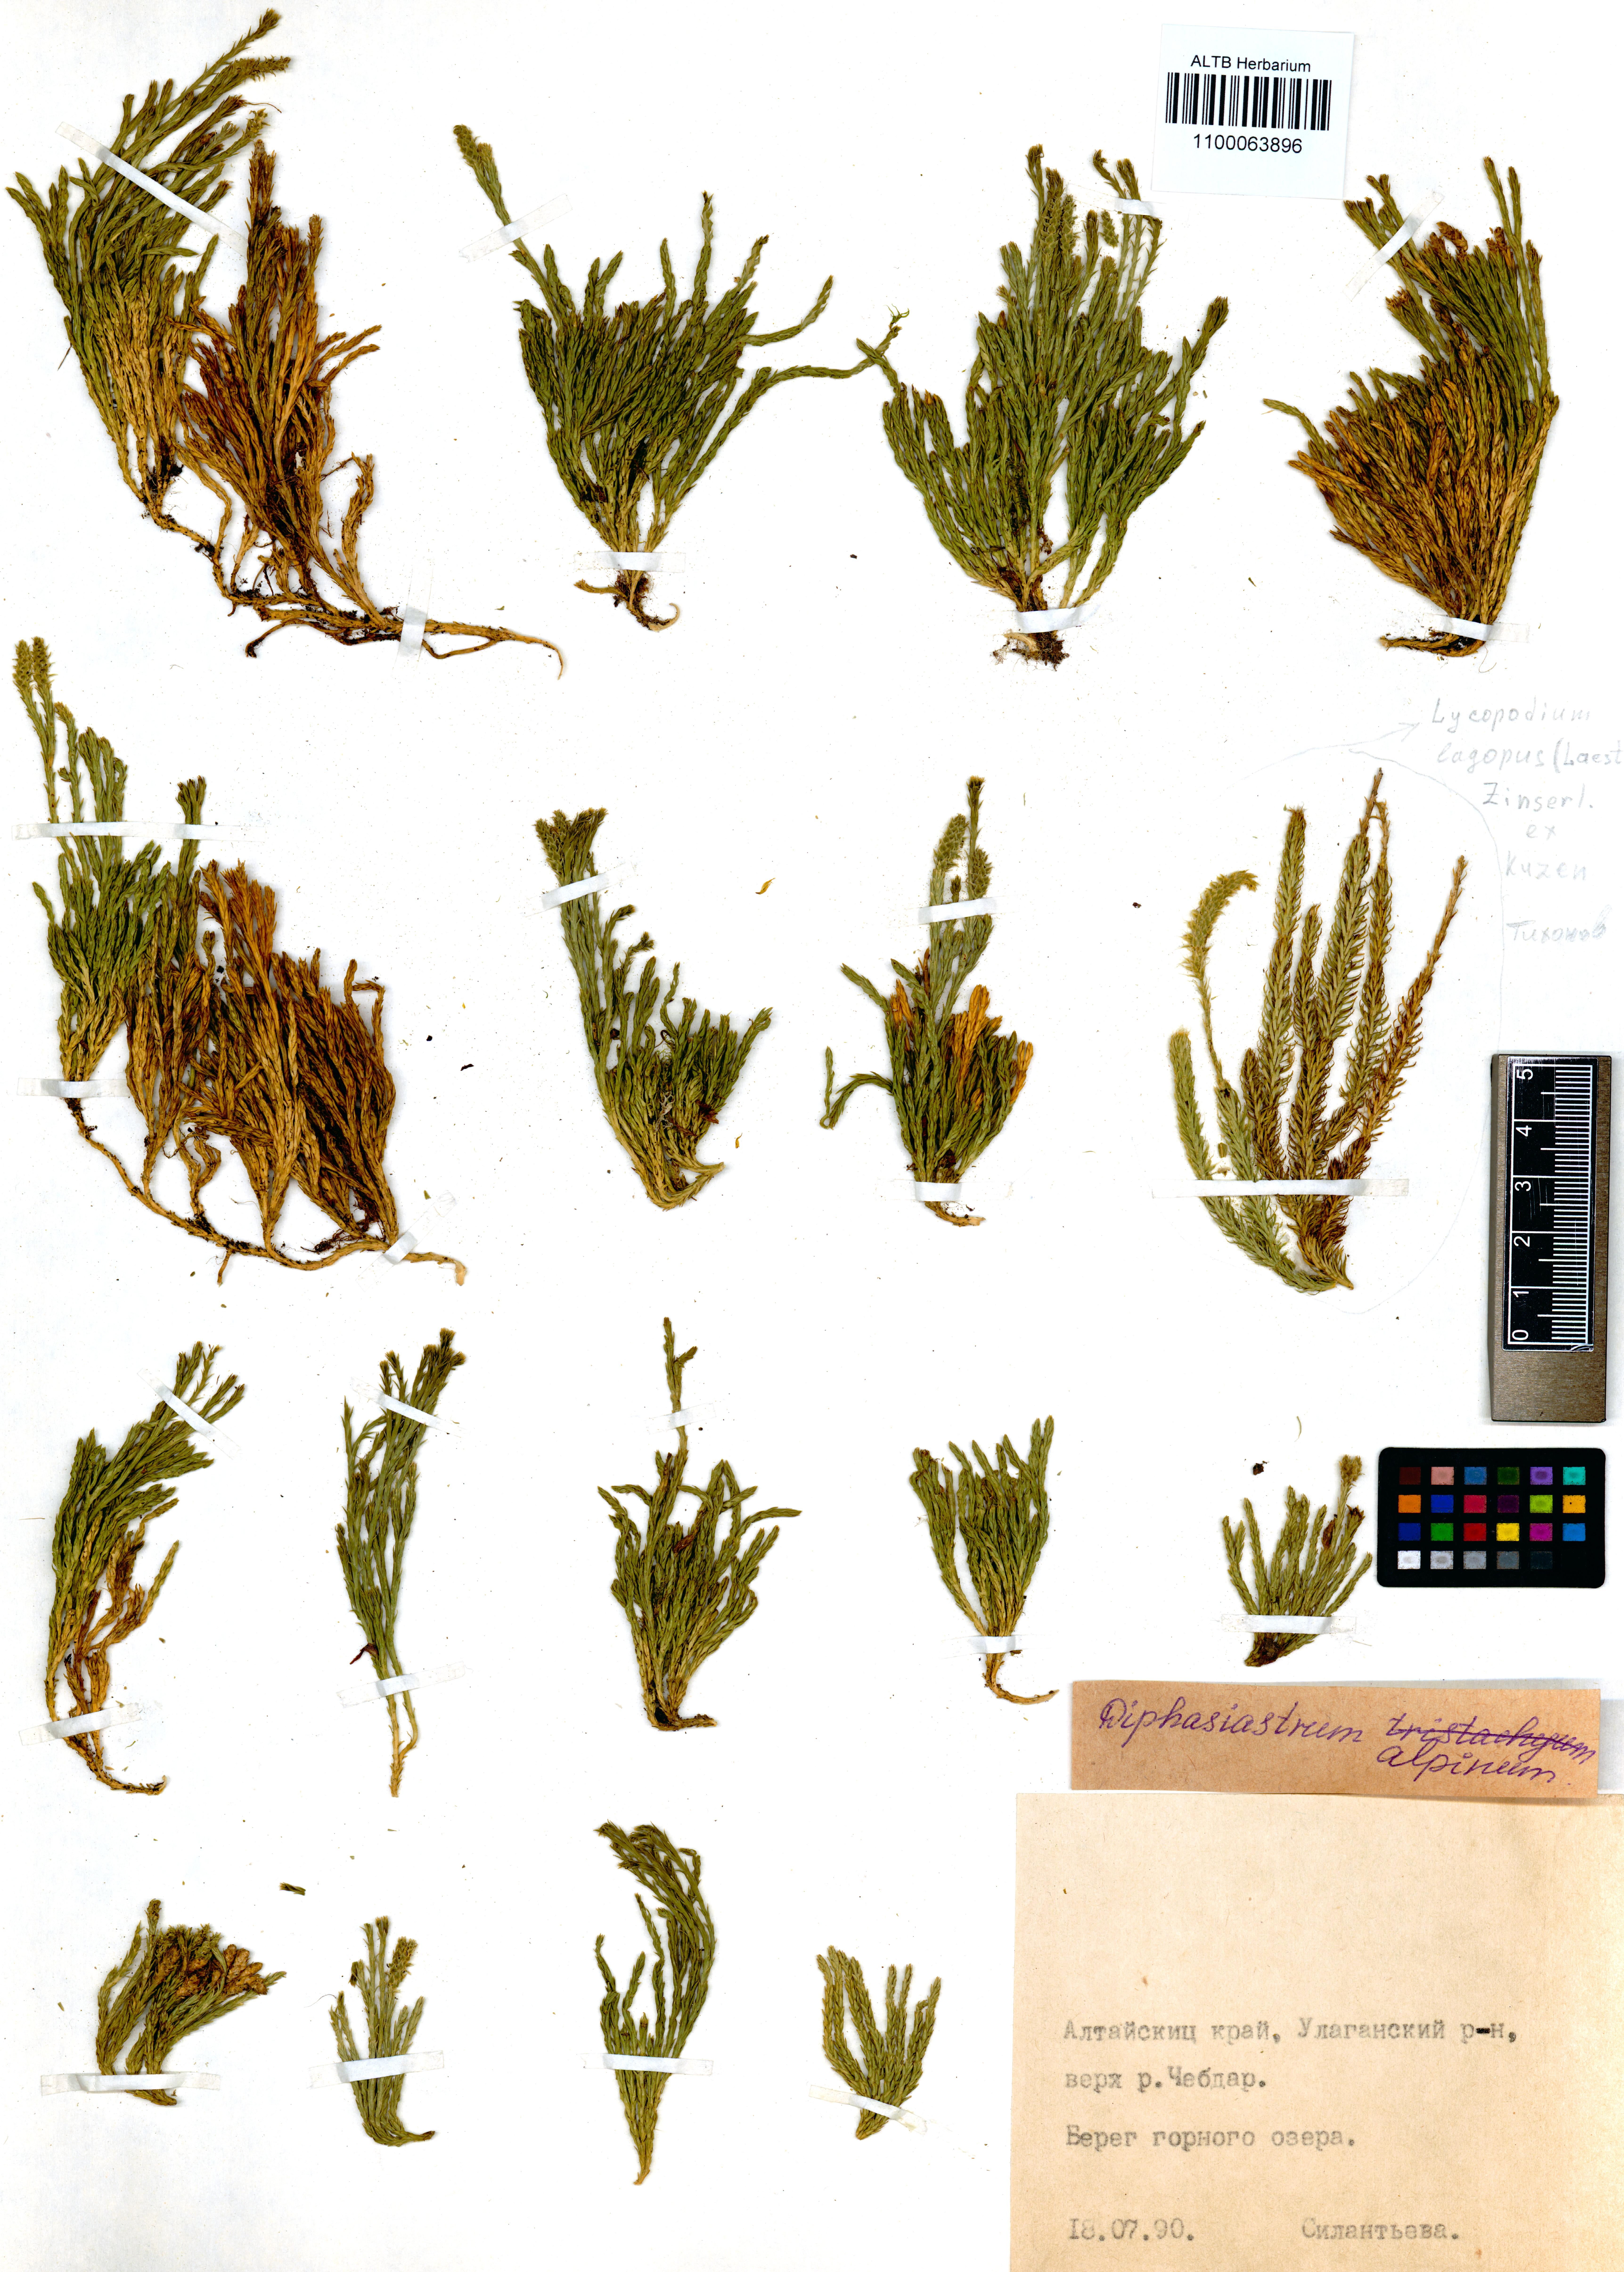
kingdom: Plantae
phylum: Tracheophyta
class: Lycopodiopsida
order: Lycopodiales
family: Lycopodiaceae
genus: Diphasiastrum
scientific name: Diphasiastrum alpinum
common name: Alpine clubmoss
